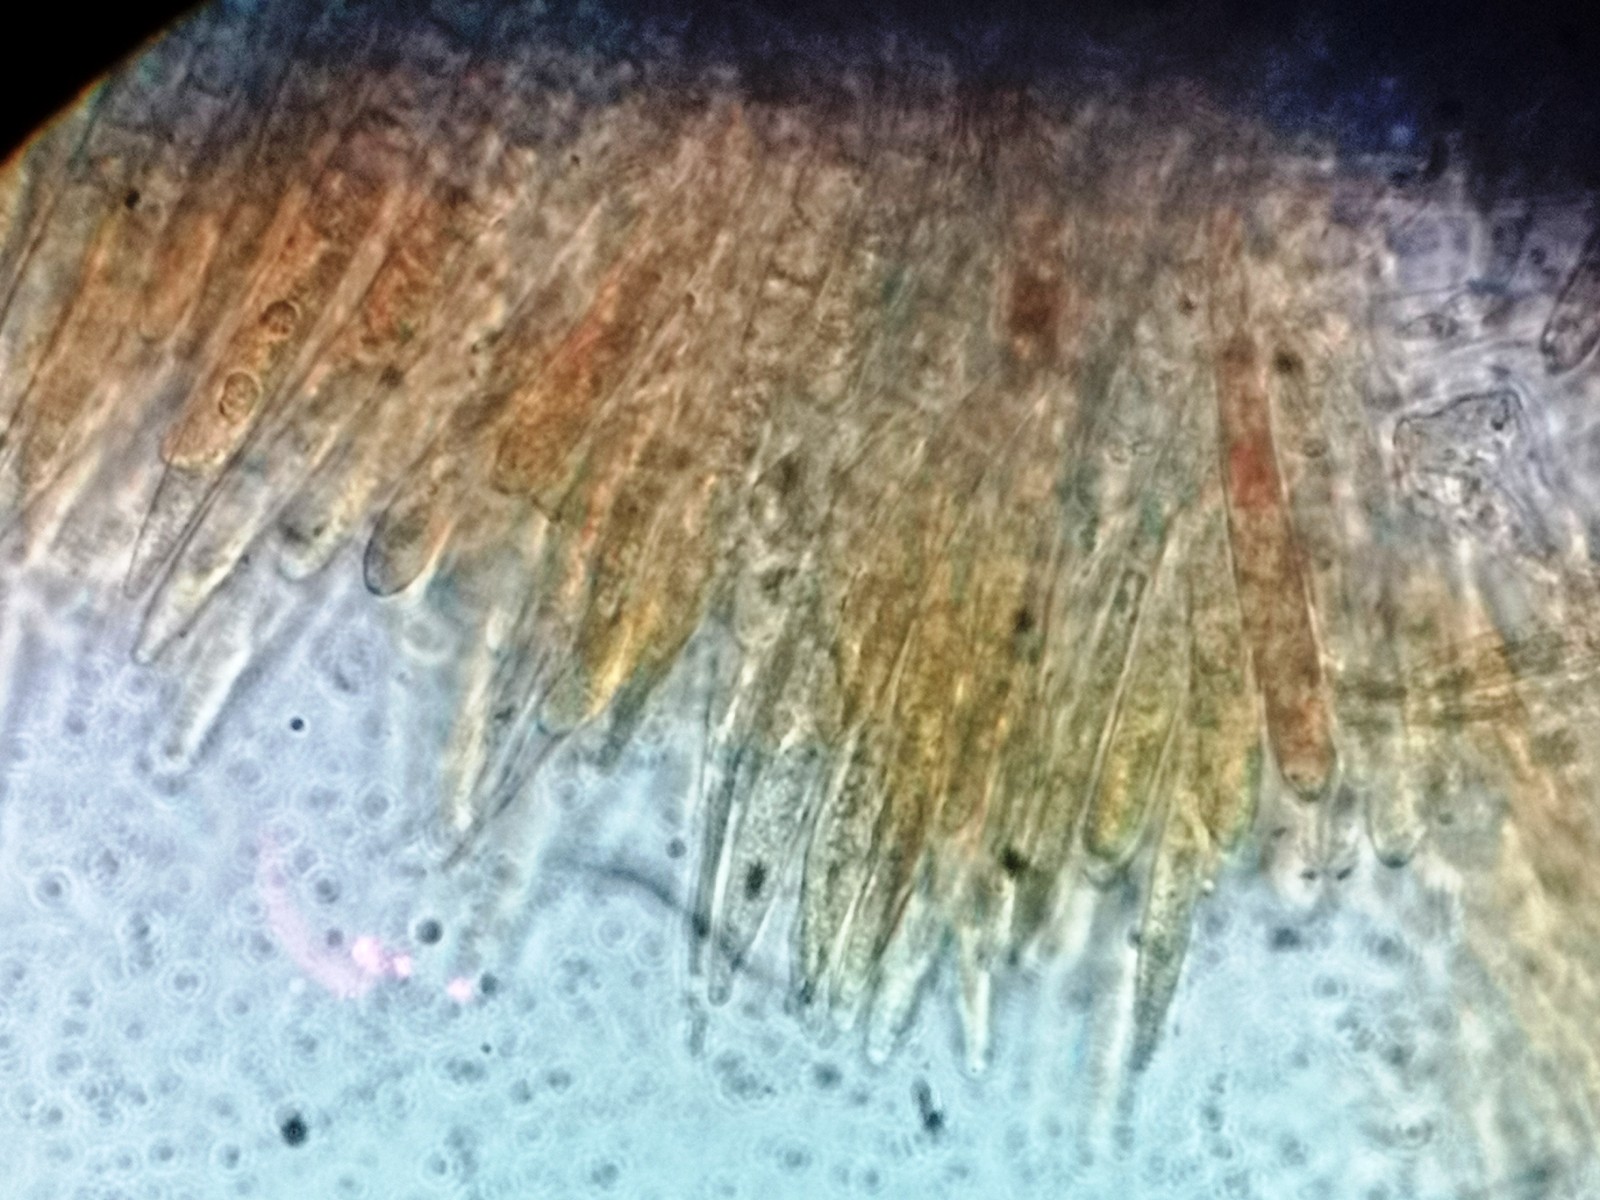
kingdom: Fungi
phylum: Ascomycota
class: Leotiomycetes
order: Helotiales
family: Dermateaceae
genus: Hysterostegiella
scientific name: Hysterostegiella valvata
